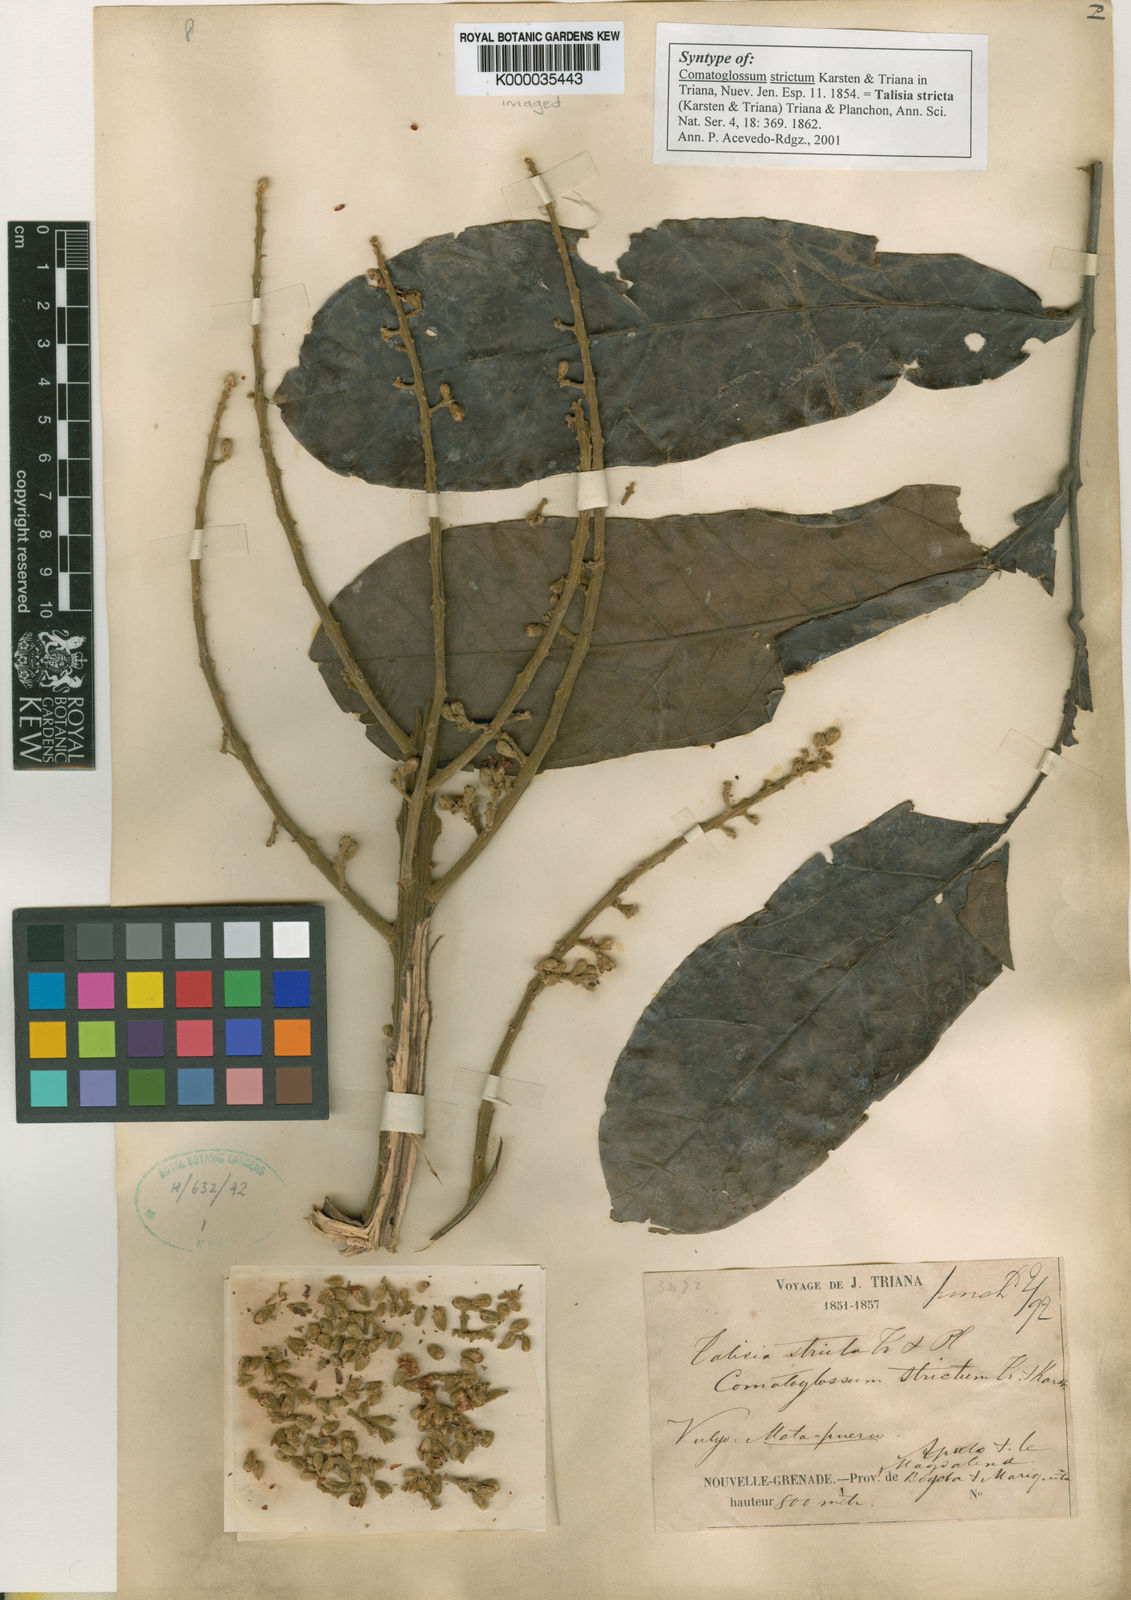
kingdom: Plantae
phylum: Tracheophyta
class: Magnoliopsida
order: Sapindales
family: Sapindaceae
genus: Talisia
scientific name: Talisia
